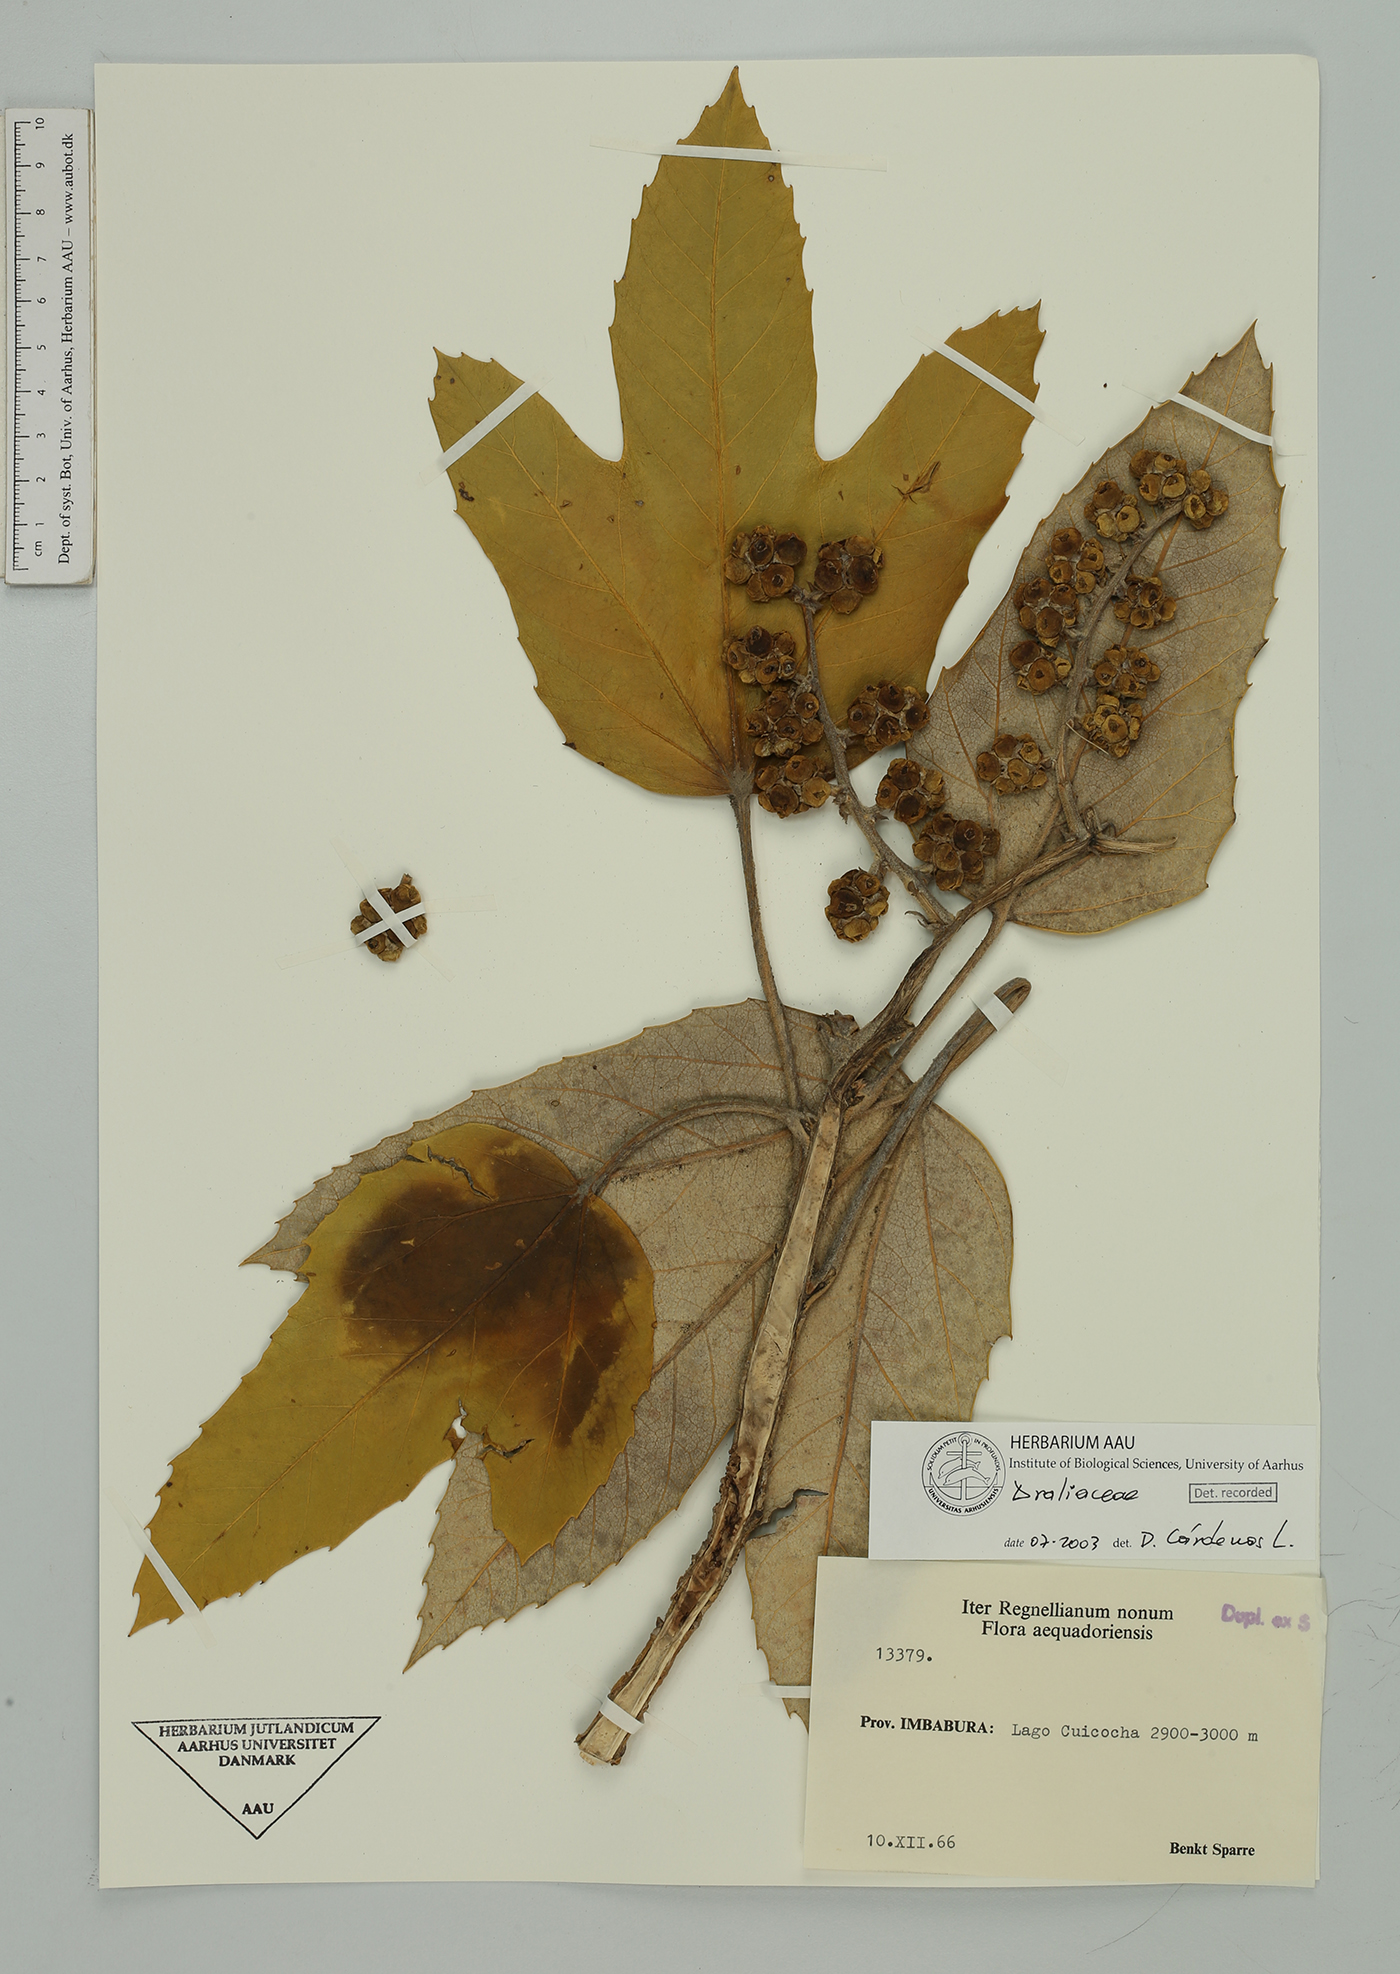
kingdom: Plantae
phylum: Tracheophyta
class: Magnoliopsida
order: Apiales
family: Araliaceae
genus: Oreopanax
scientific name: Oreopanax
